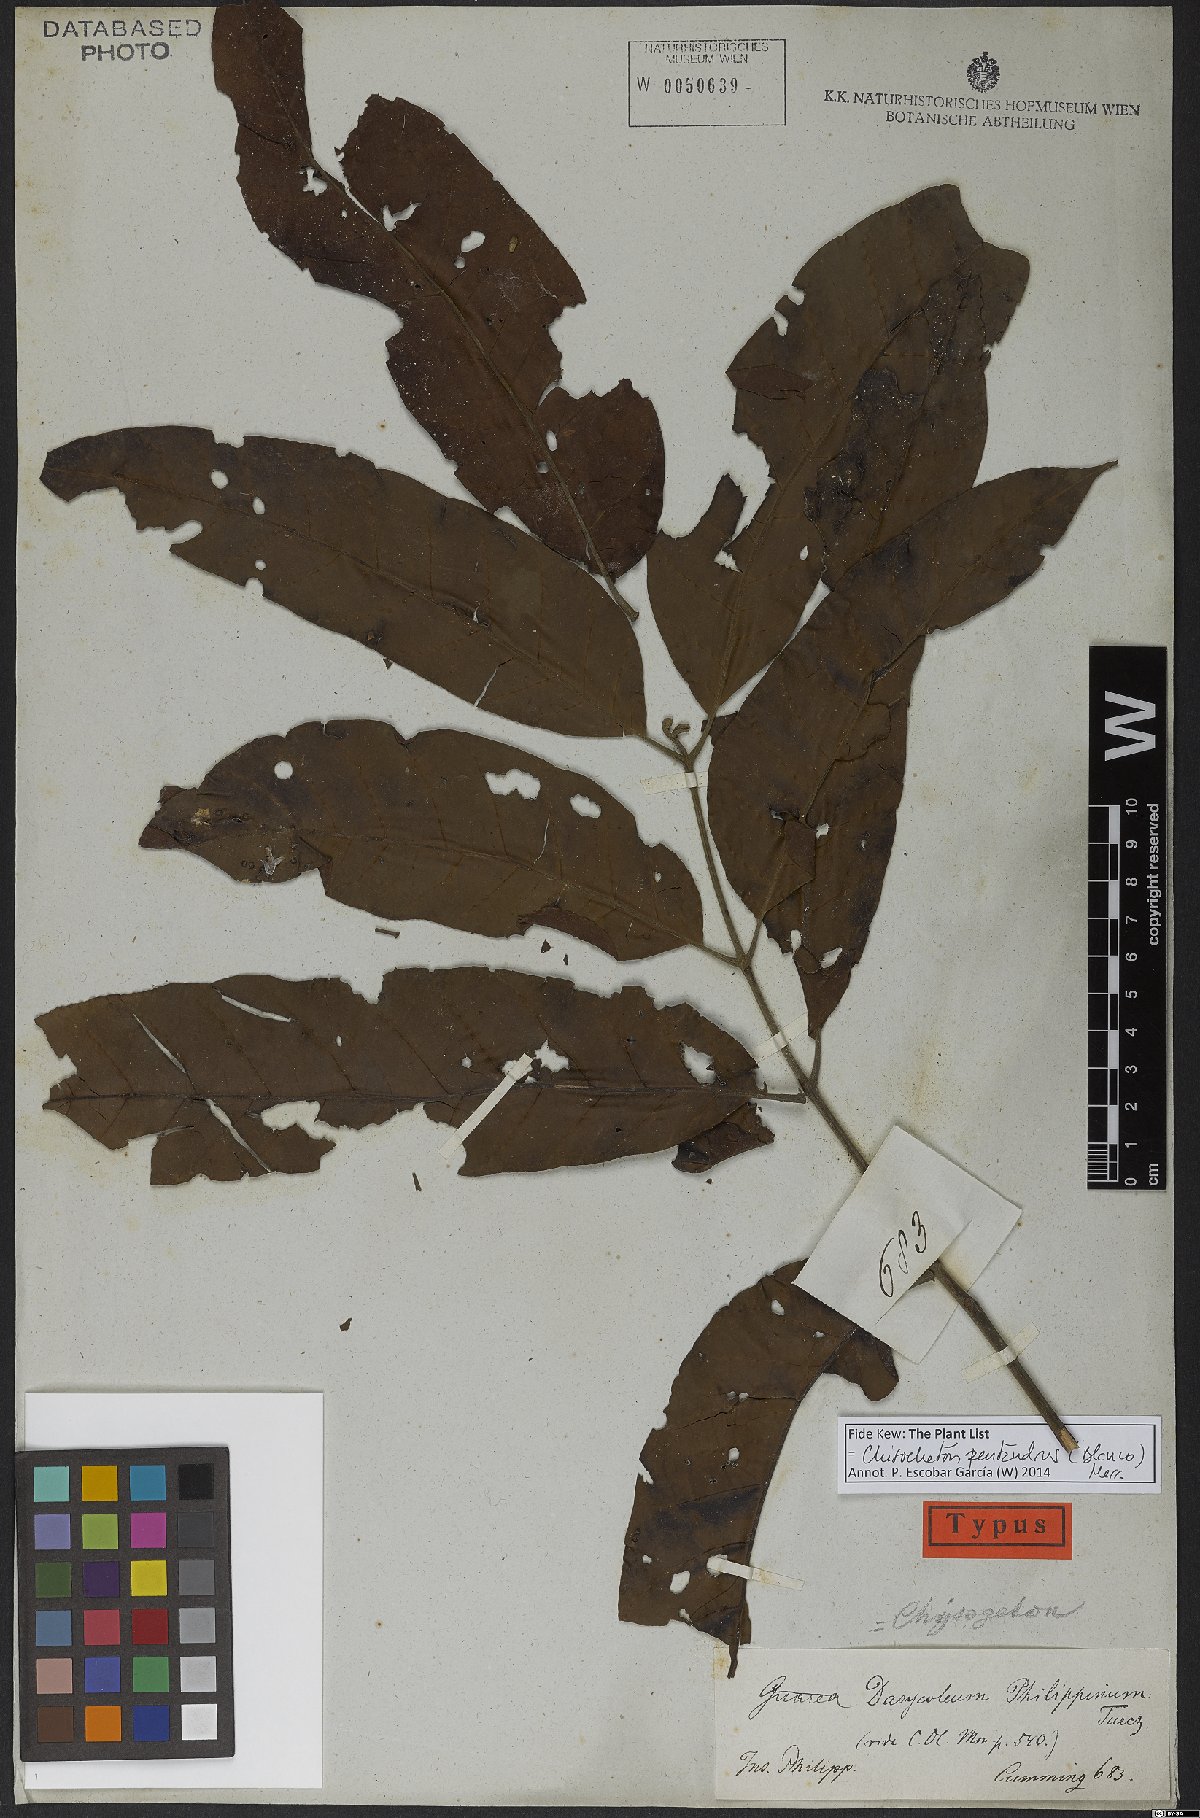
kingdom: Plantae
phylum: Tracheophyta
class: Magnoliopsida
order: Sapindales
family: Meliaceae
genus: Chisocheton
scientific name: Chisocheton pentandrus
